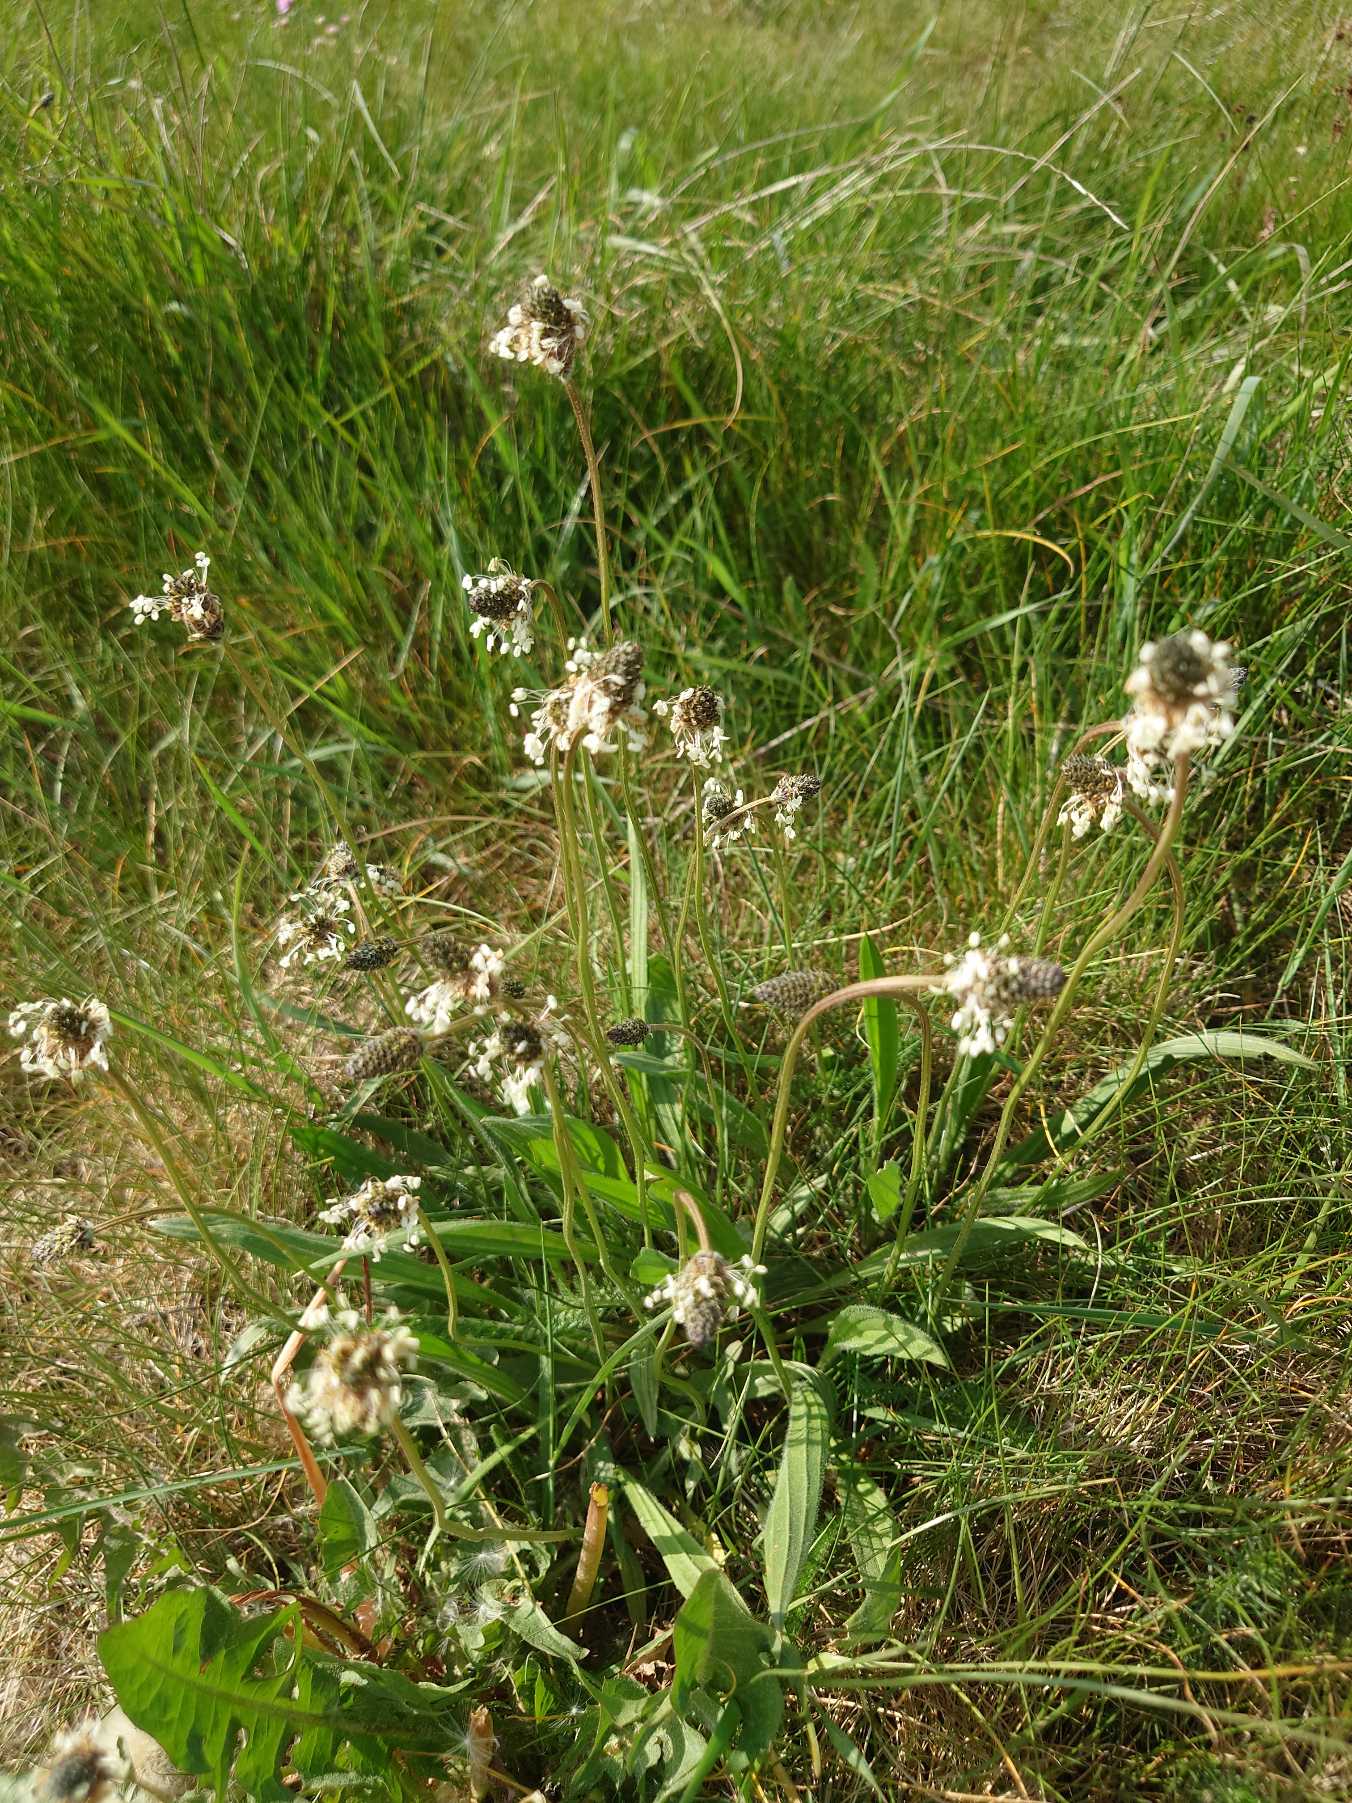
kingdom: Plantae
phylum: Tracheophyta
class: Magnoliopsida
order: Lamiales
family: Plantaginaceae
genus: Plantago
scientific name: Plantago lanceolata
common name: Lancet-vejbred
